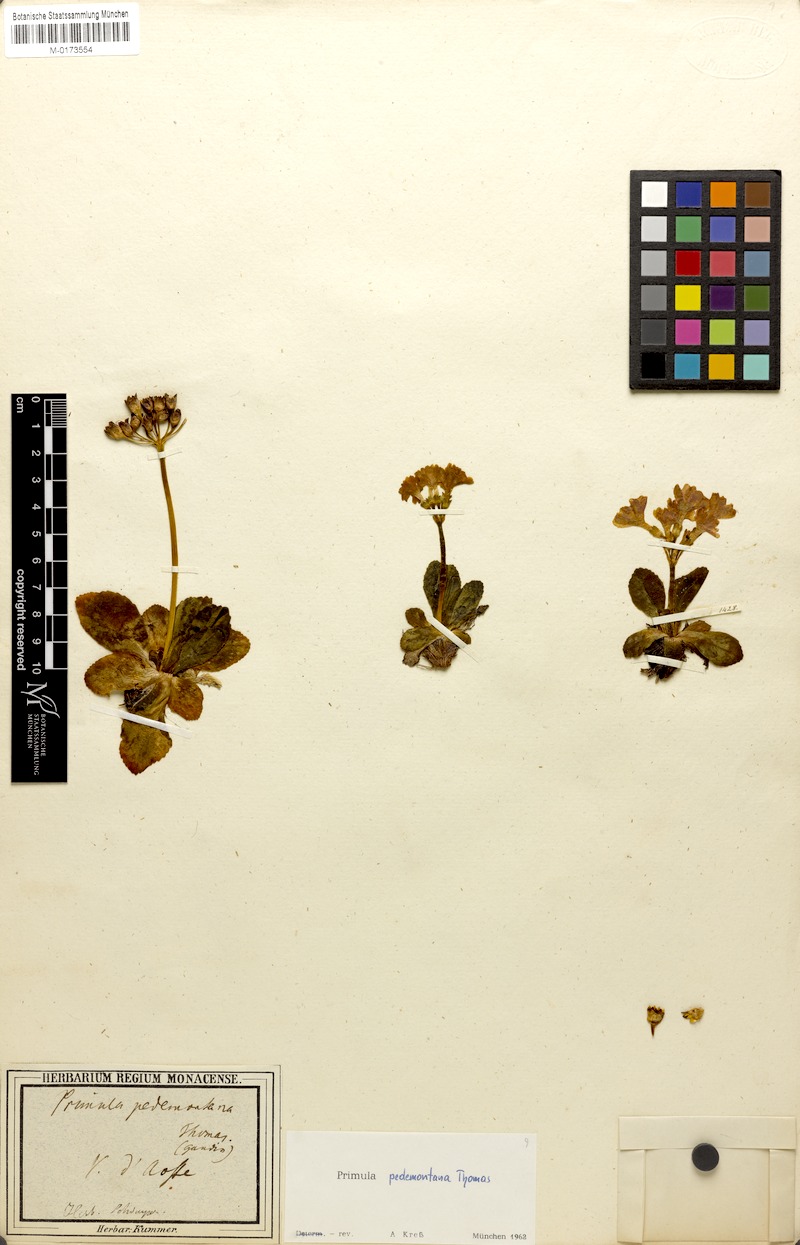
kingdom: Plantae
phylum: Tracheophyta
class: Magnoliopsida
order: Ericales
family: Primulaceae
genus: Primula
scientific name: Primula pedemontana
